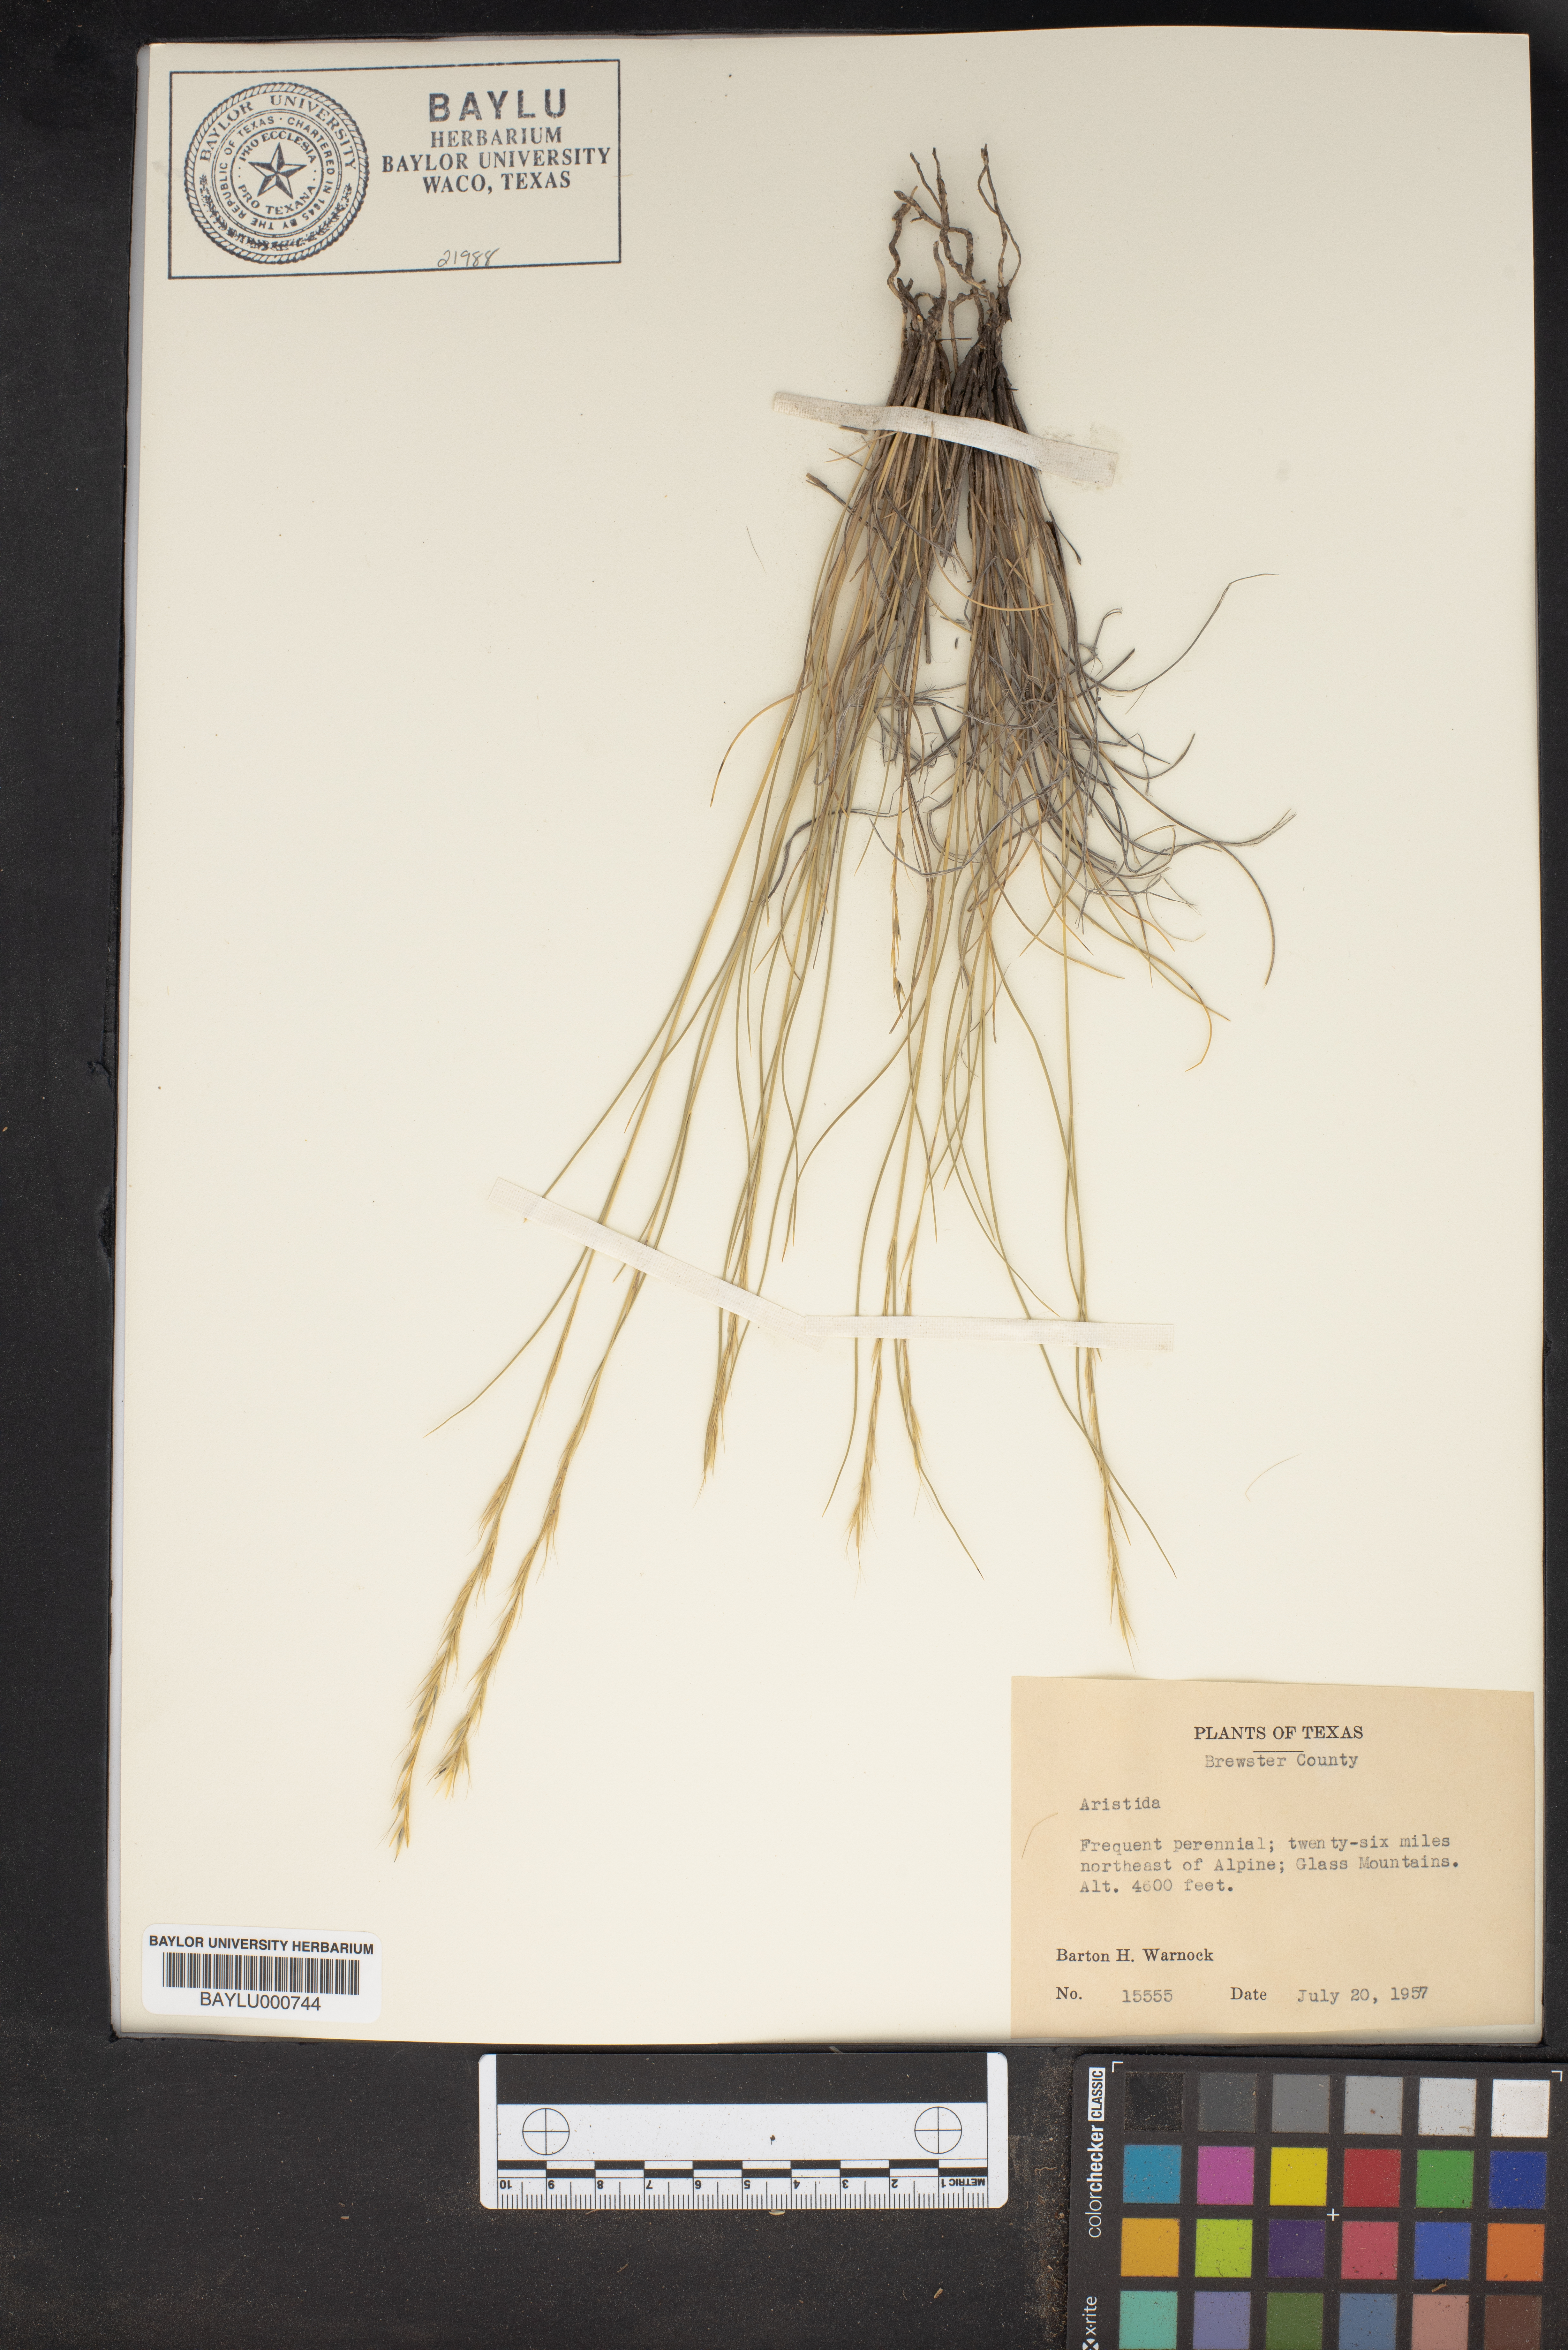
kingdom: Plantae
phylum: Tracheophyta
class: Liliopsida
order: Poales
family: Poaceae
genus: Aristida
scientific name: Aristida
